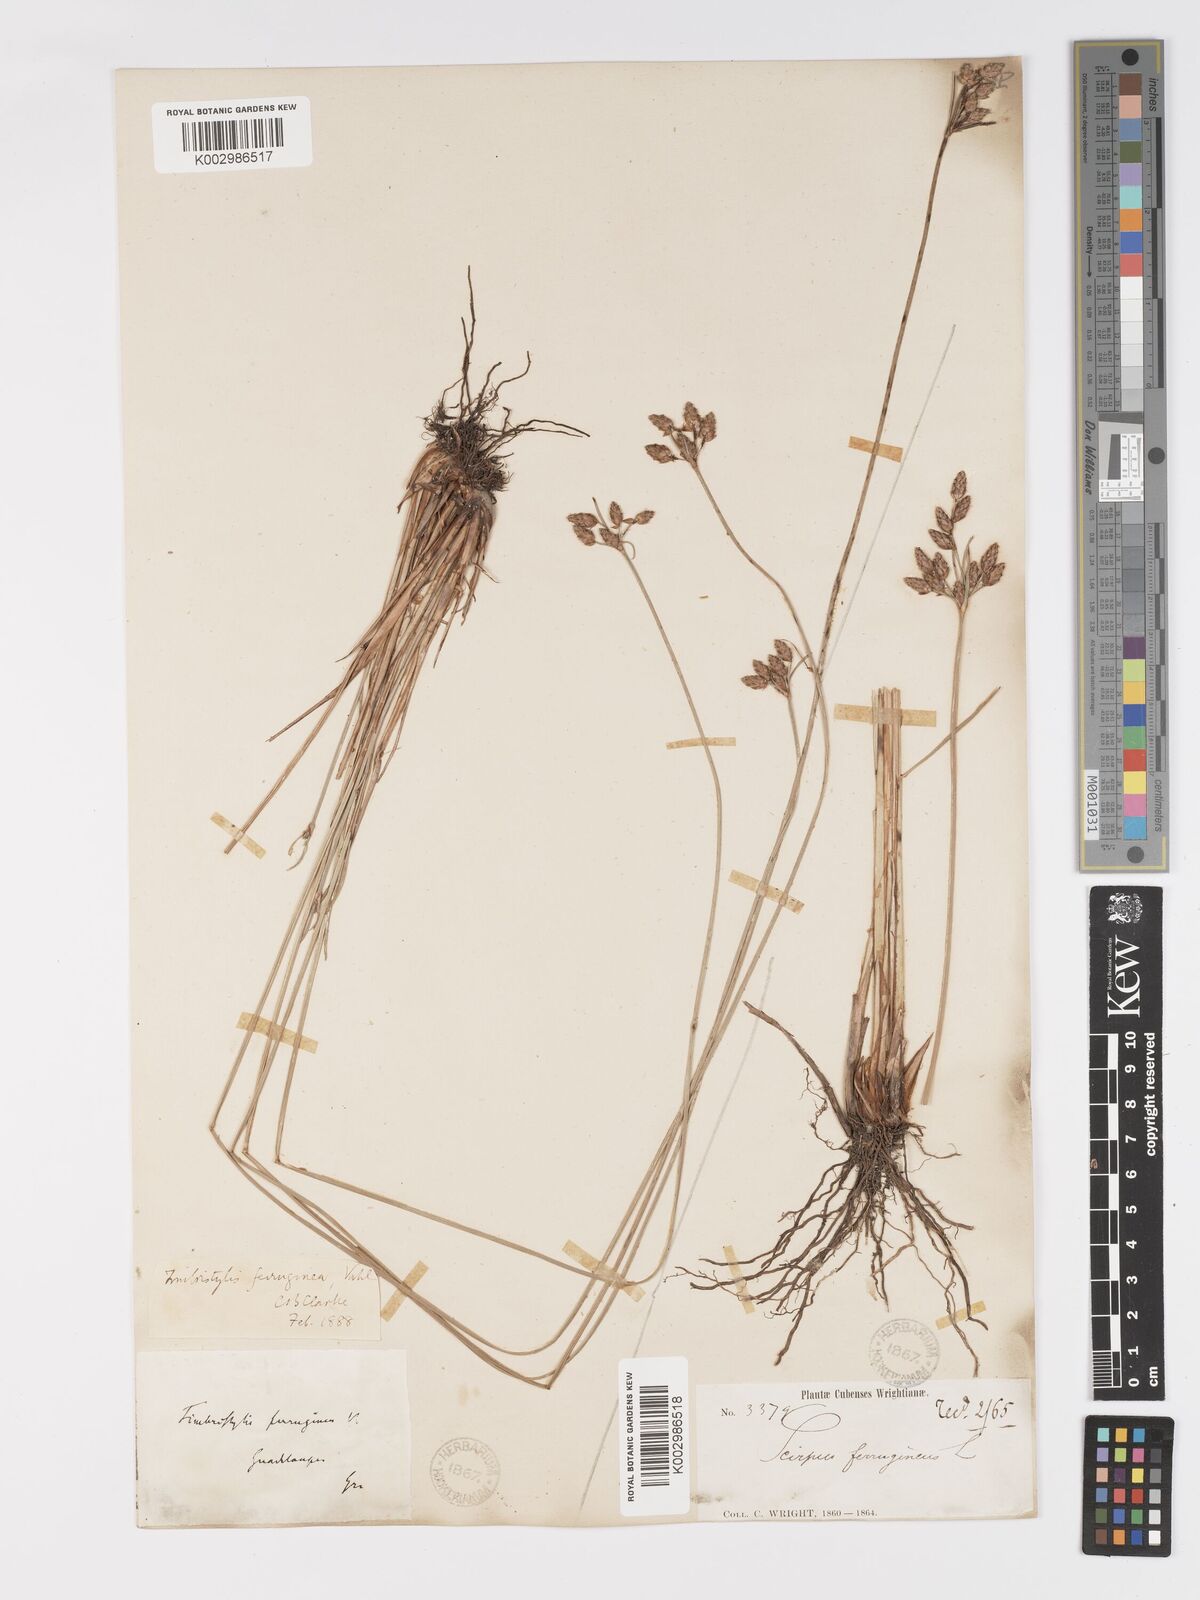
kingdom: Plantae
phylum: Tracheophyta
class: Liliopsida
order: Poales
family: Cyperaceae
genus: Fimbristylis
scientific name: Fimbristylis ferruginea
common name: West indian fimbry
